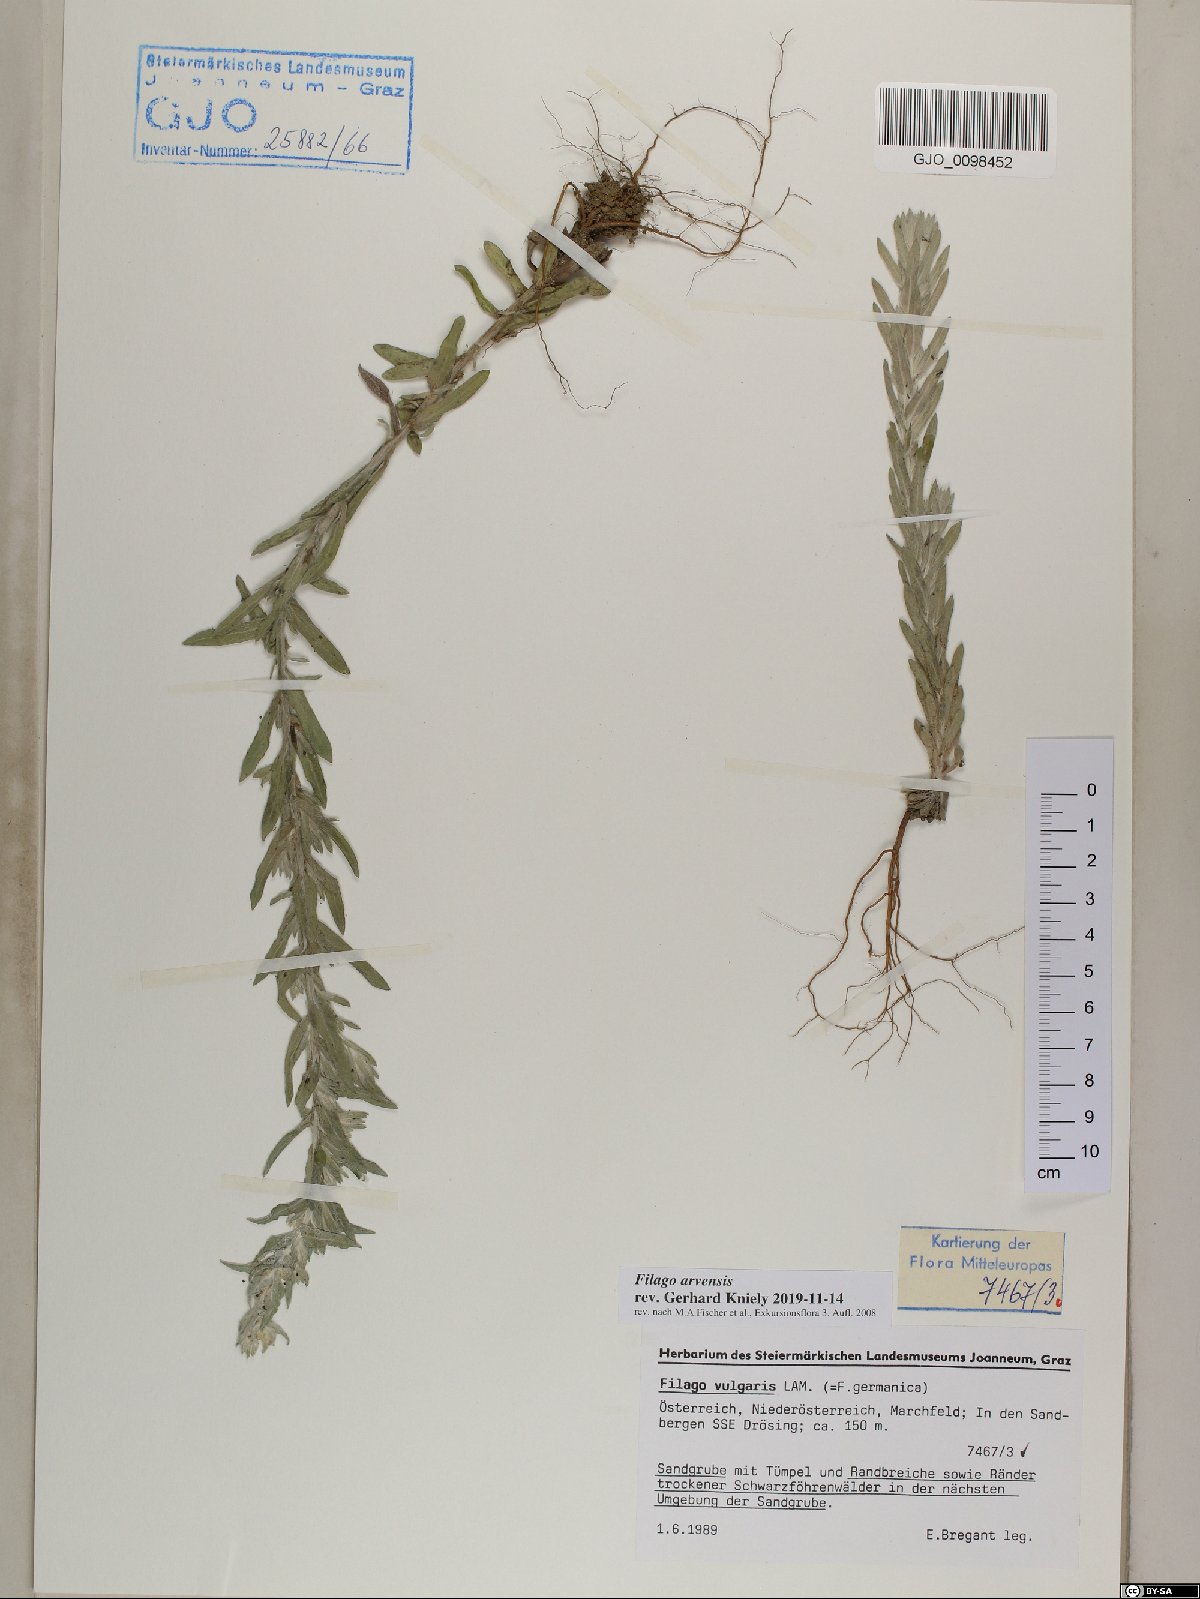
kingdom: Plantae
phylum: Tracheophyta
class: Magnoliopsida
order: Asterales
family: Asteraceae
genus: Filago
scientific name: Filago arvensis
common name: Field cudweed
